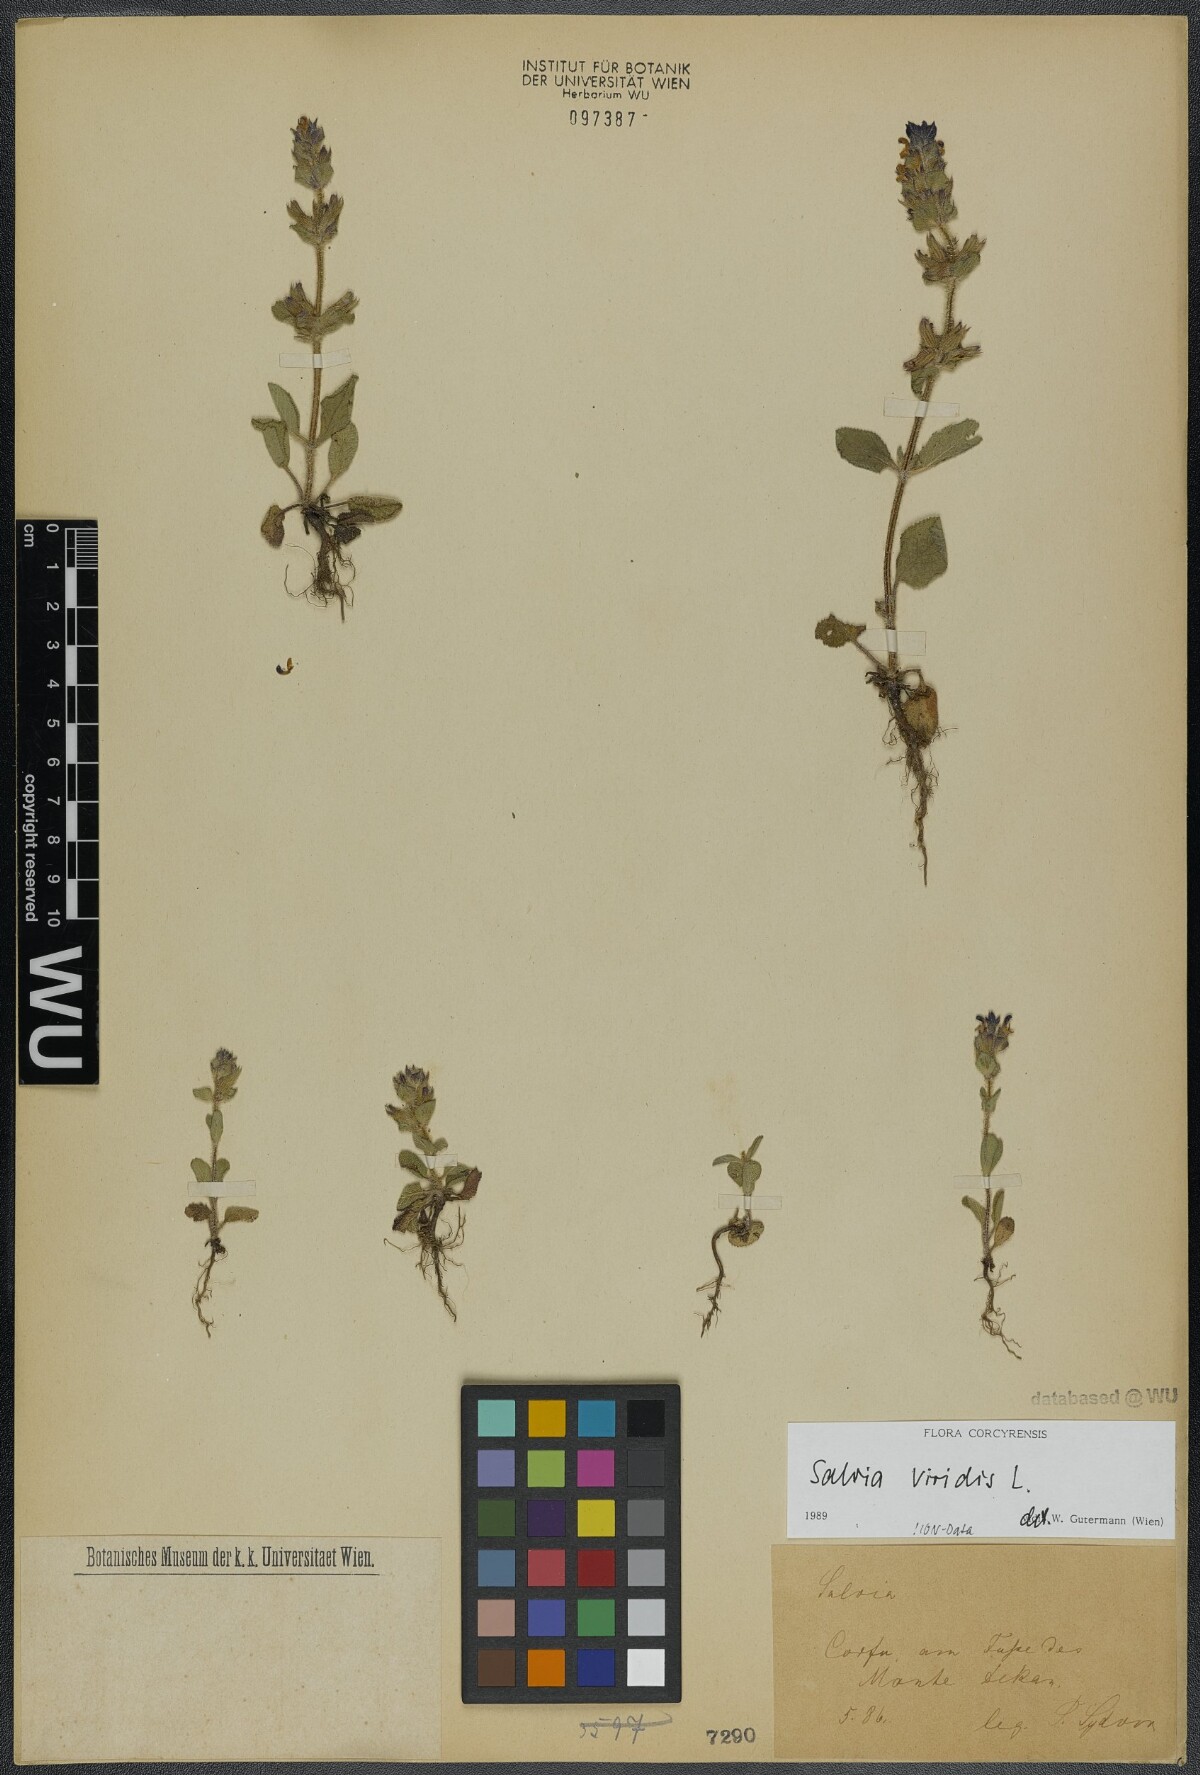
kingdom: Plantae
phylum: Tracheophyta
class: Magnoliopsida
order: Lamiales
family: Lamiaceae
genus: Salvia
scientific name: Salvia viridis
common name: Annual clary
